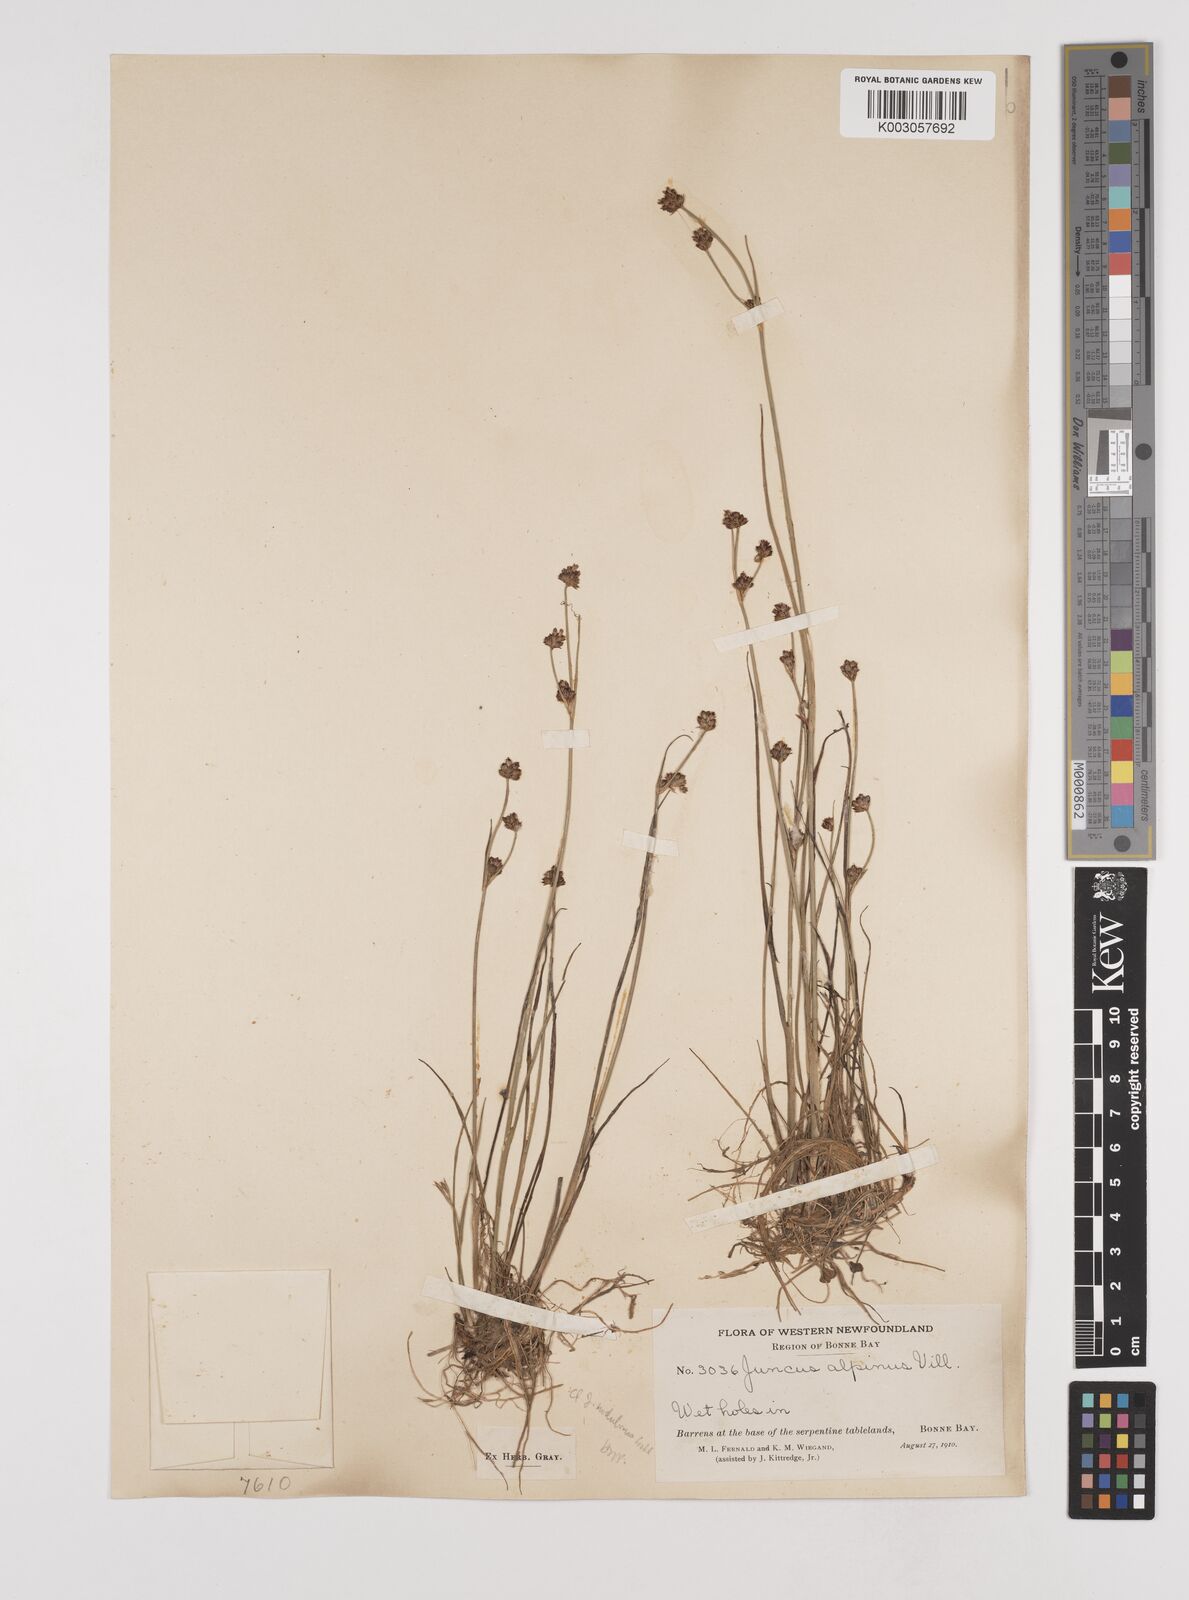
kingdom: Plantae
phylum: Tracheophyta
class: Liliopsida
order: Poales
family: Juncaceae
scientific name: Juncaceae
